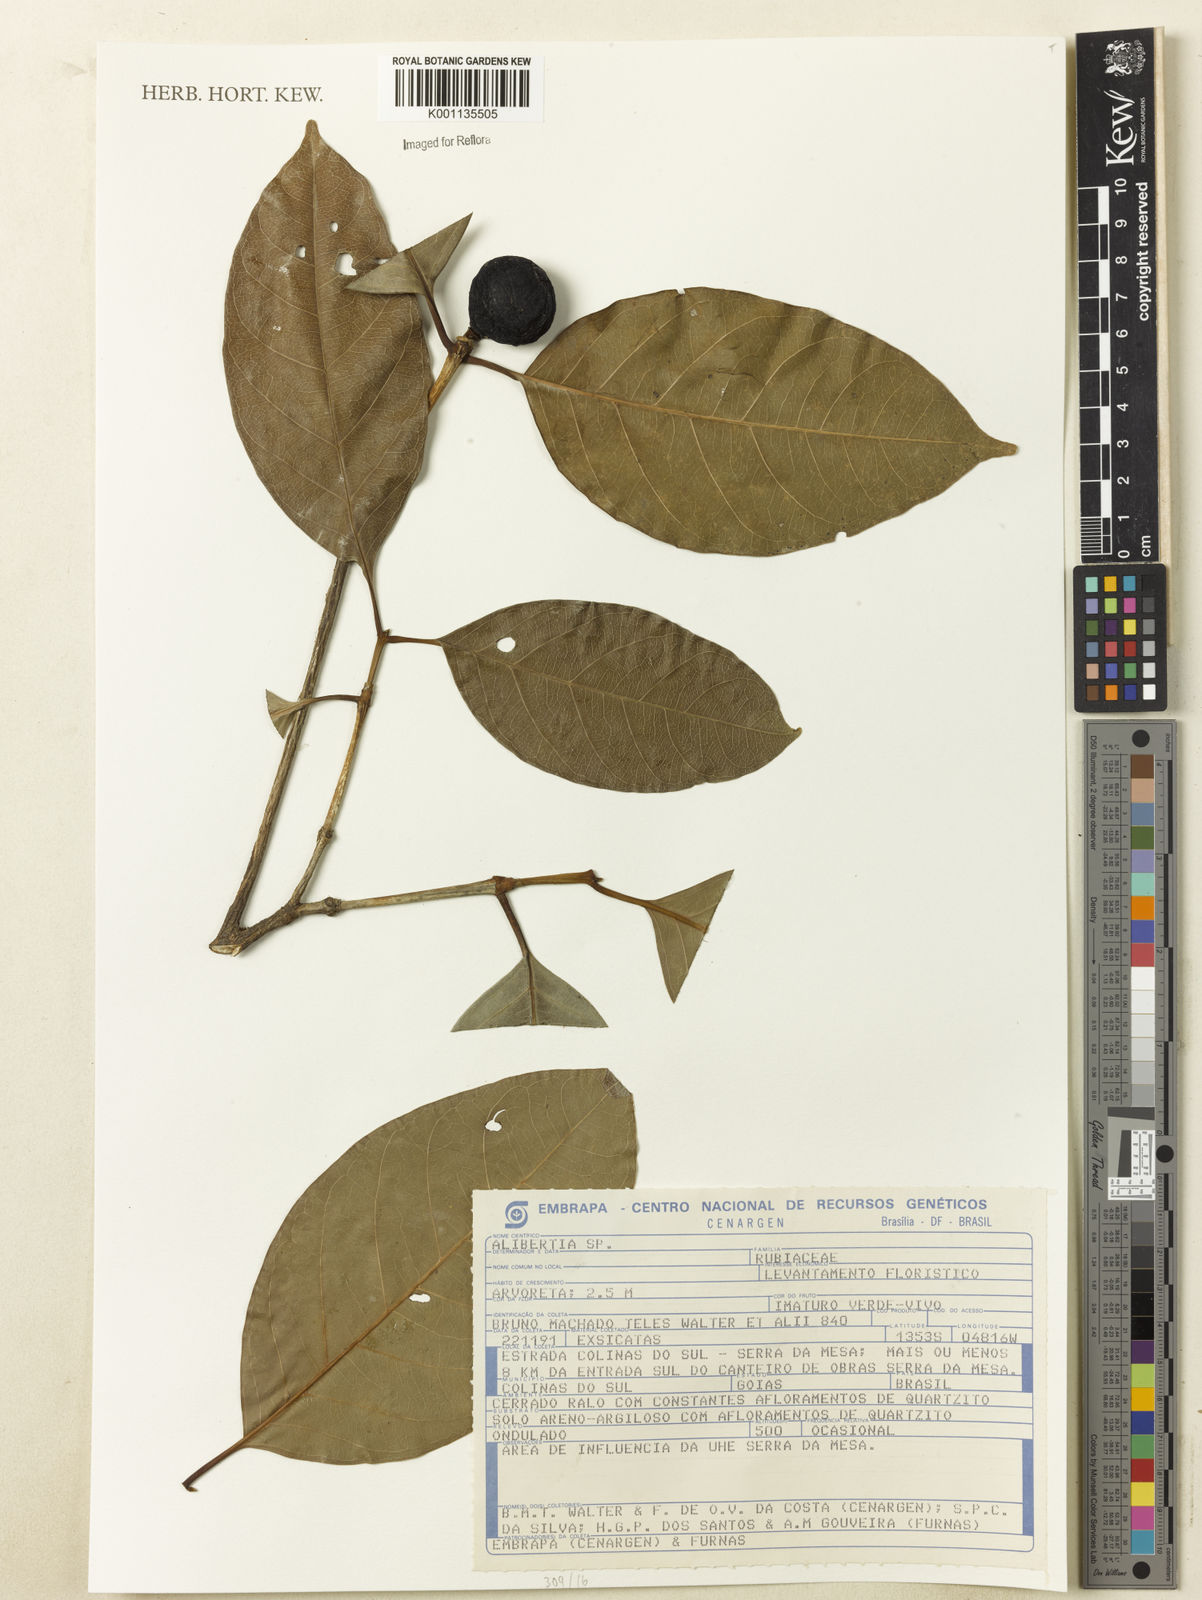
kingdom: Plantae
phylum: Tracheophyta
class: Magnoliopsida
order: Gentianales
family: Rubiaceae
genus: Cordiera
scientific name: Cordiera sessilis
